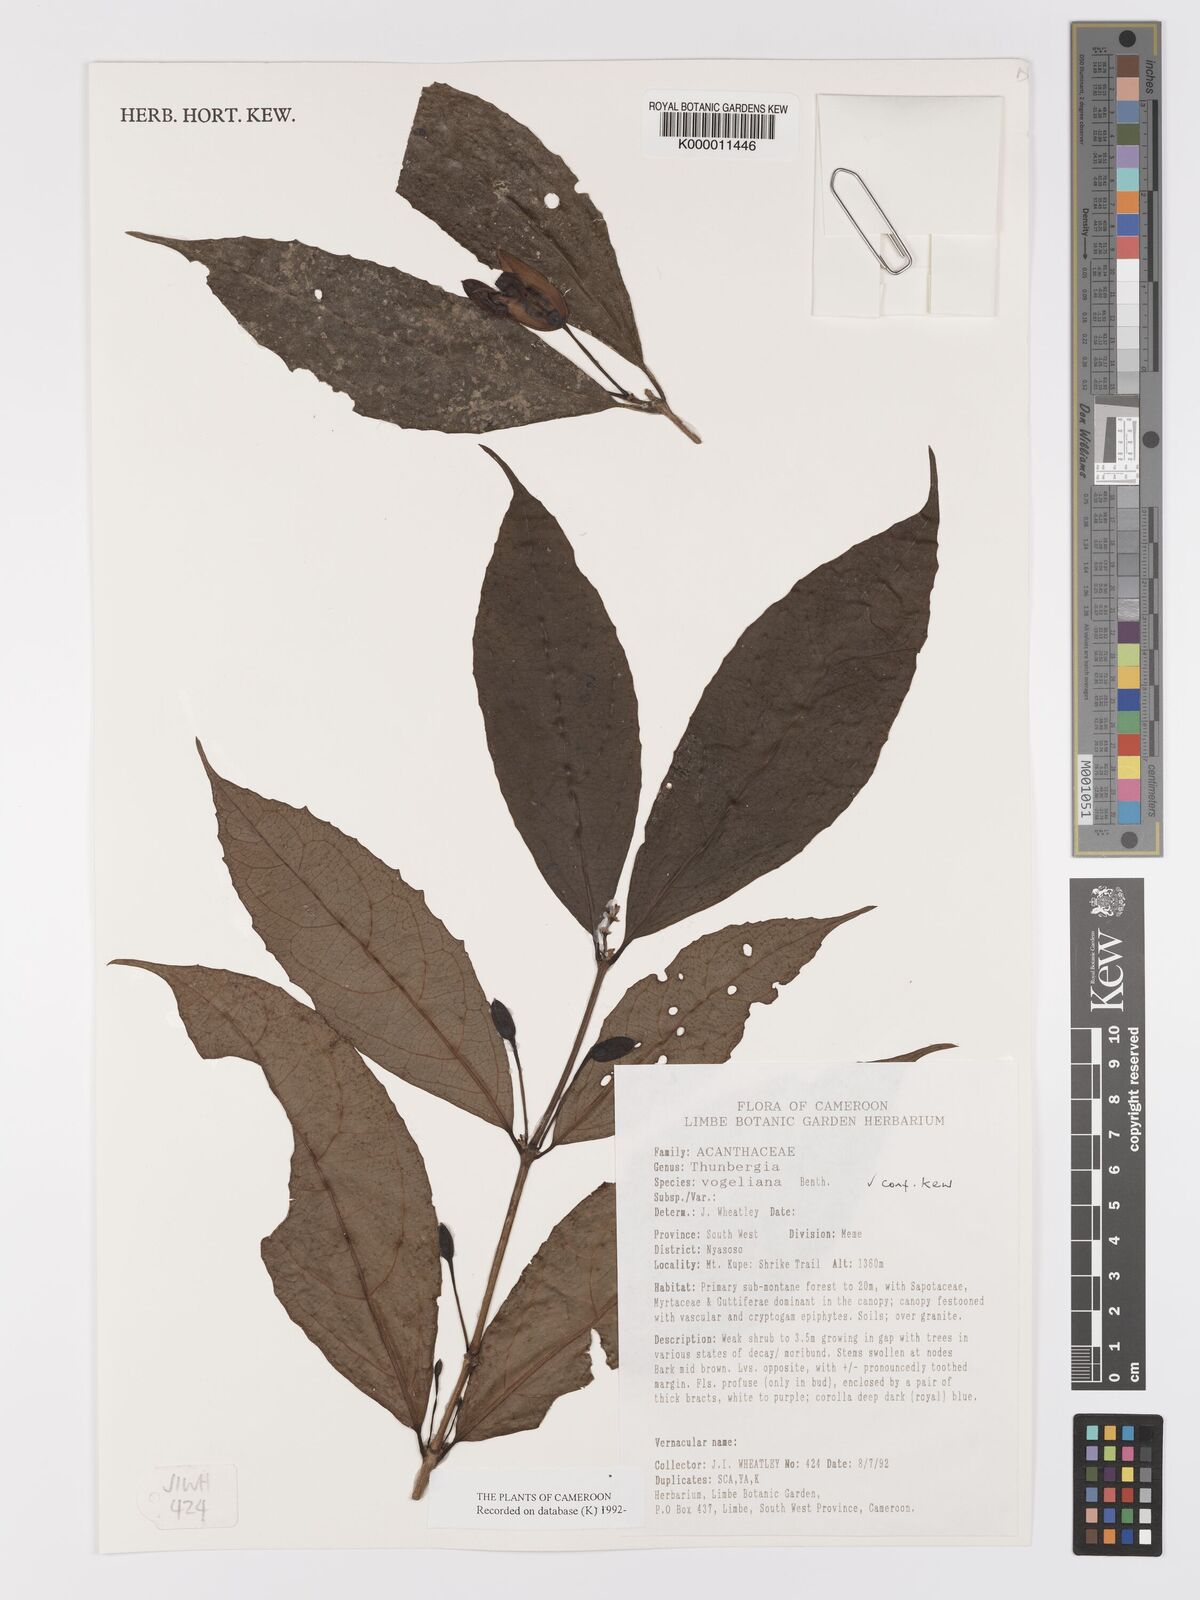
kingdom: Plantae
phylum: Tracheophyta
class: Magnoliopsida
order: Lamiales
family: Acanthaceae
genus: Thunbergia
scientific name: Thunbergia vogeliana
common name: Acanthaceae
